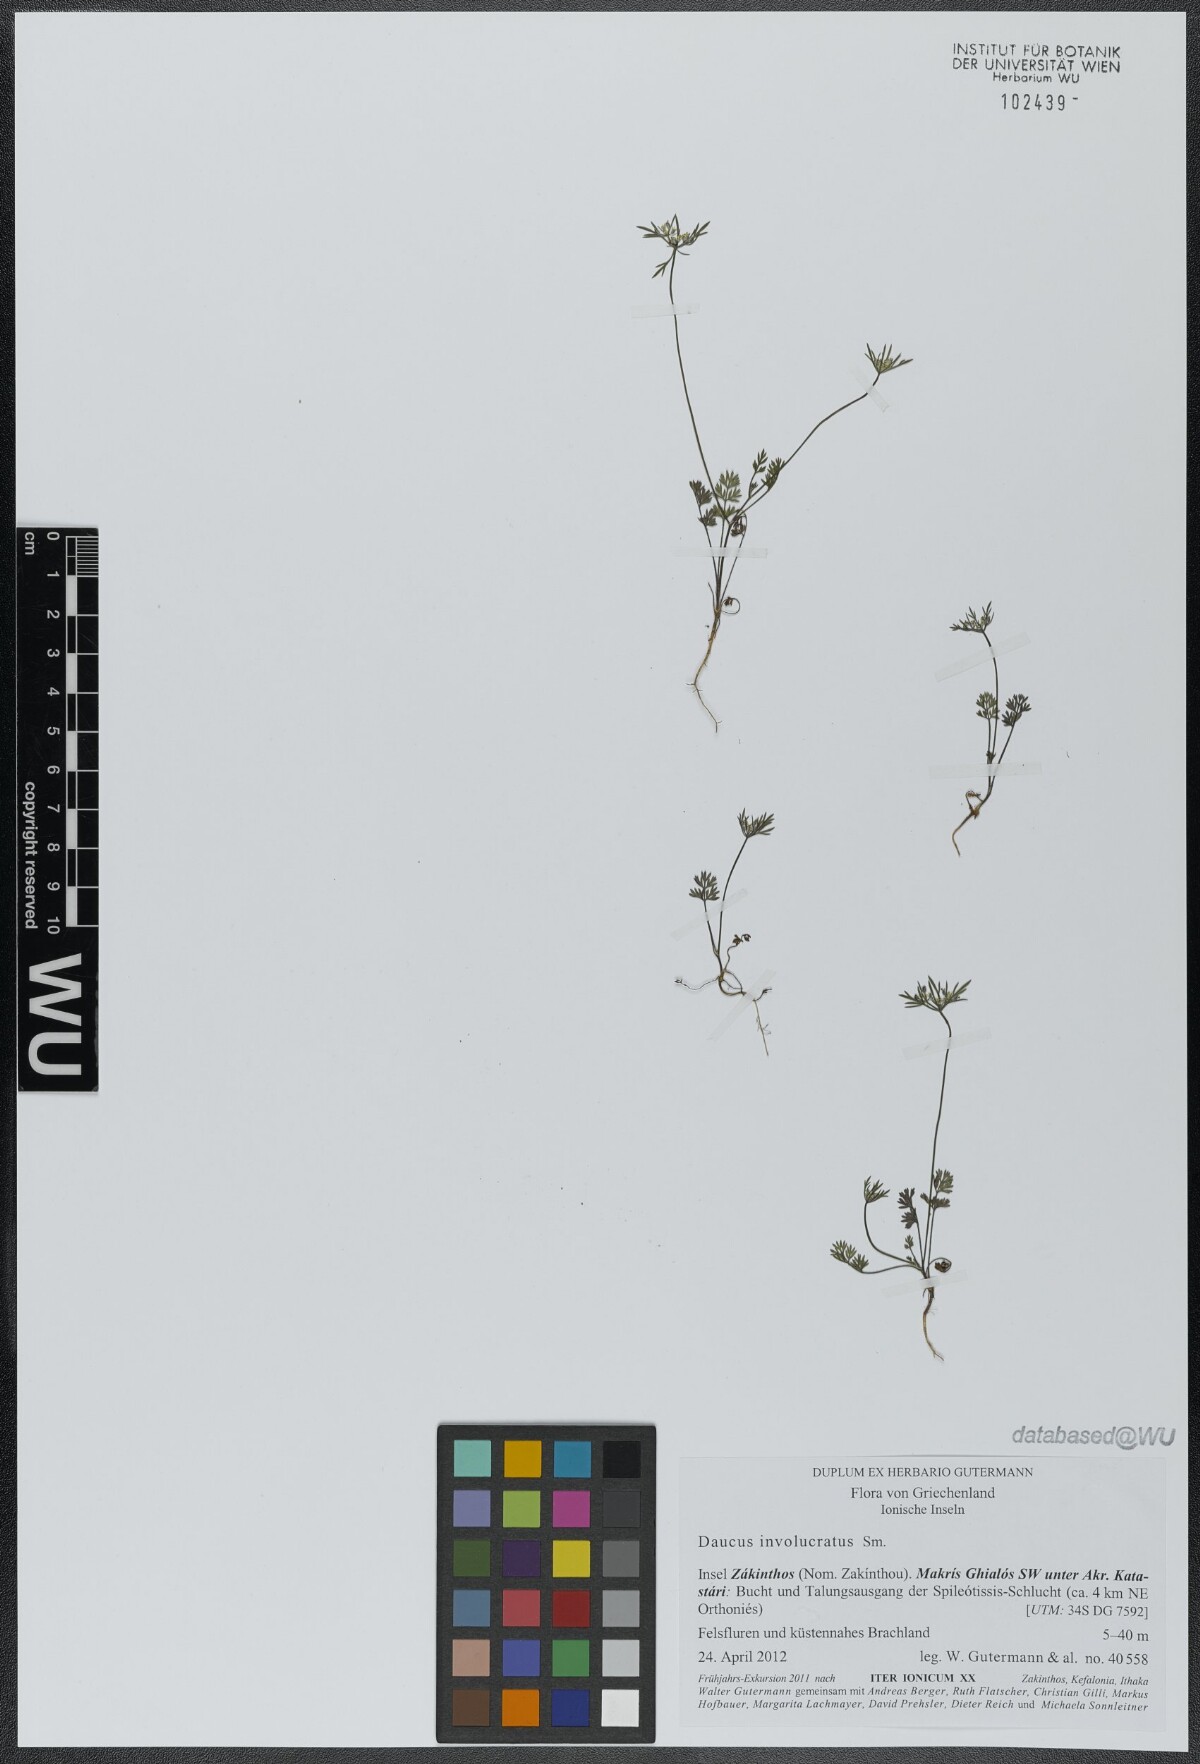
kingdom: Plantae
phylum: Tracheophyta
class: Magnoliopsida
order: Apiales
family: Apiaceae
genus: Daucus
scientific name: Daucus involucratus
